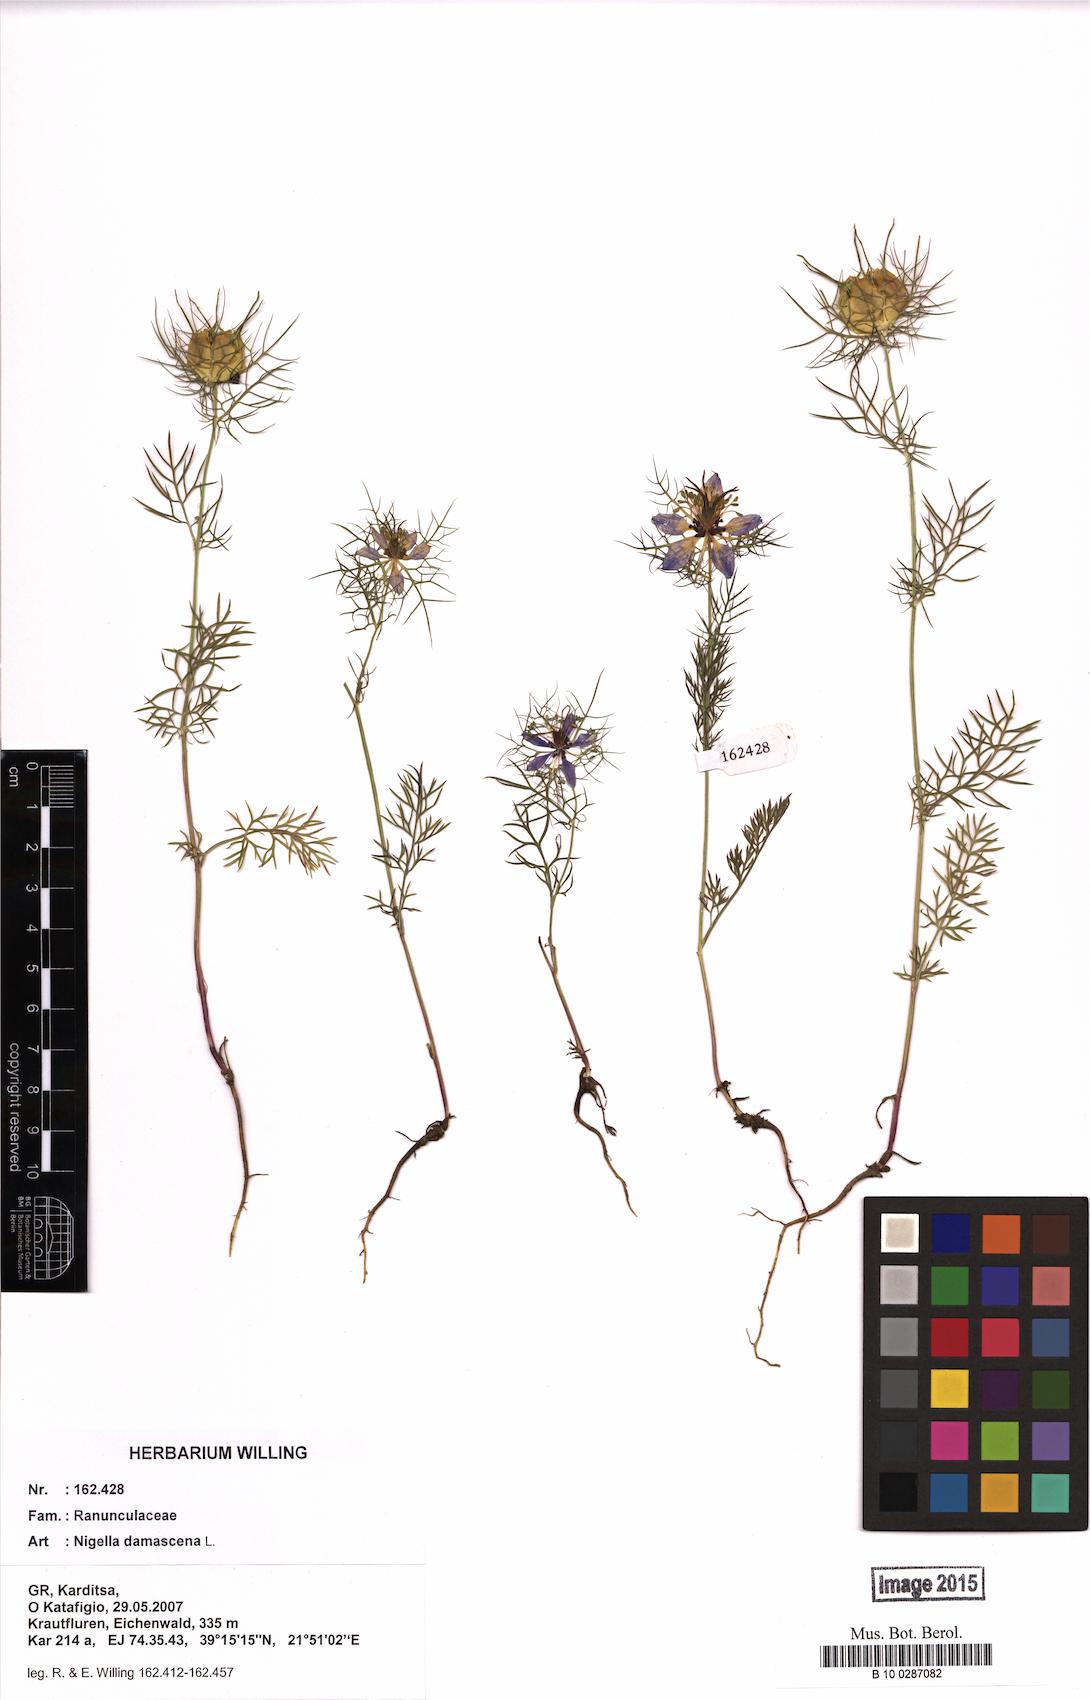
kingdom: Plantae
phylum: Tracheophyta
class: Magnoliopsida
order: Ranunculales
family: Ranunculaceae
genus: Nigella
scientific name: Nigella damascena
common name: Love-in-a-mist
